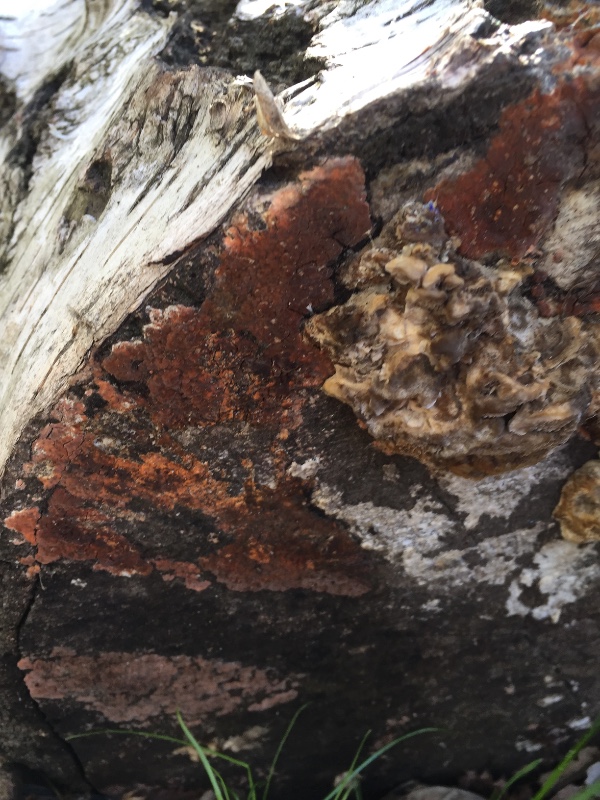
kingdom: Fungi
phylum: Basidiomycota
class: Agaricomycetes
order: Russulales
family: Peniophoraceae
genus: Peniophora
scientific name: Peniophora incarnata
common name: laksefarvet voksskind
